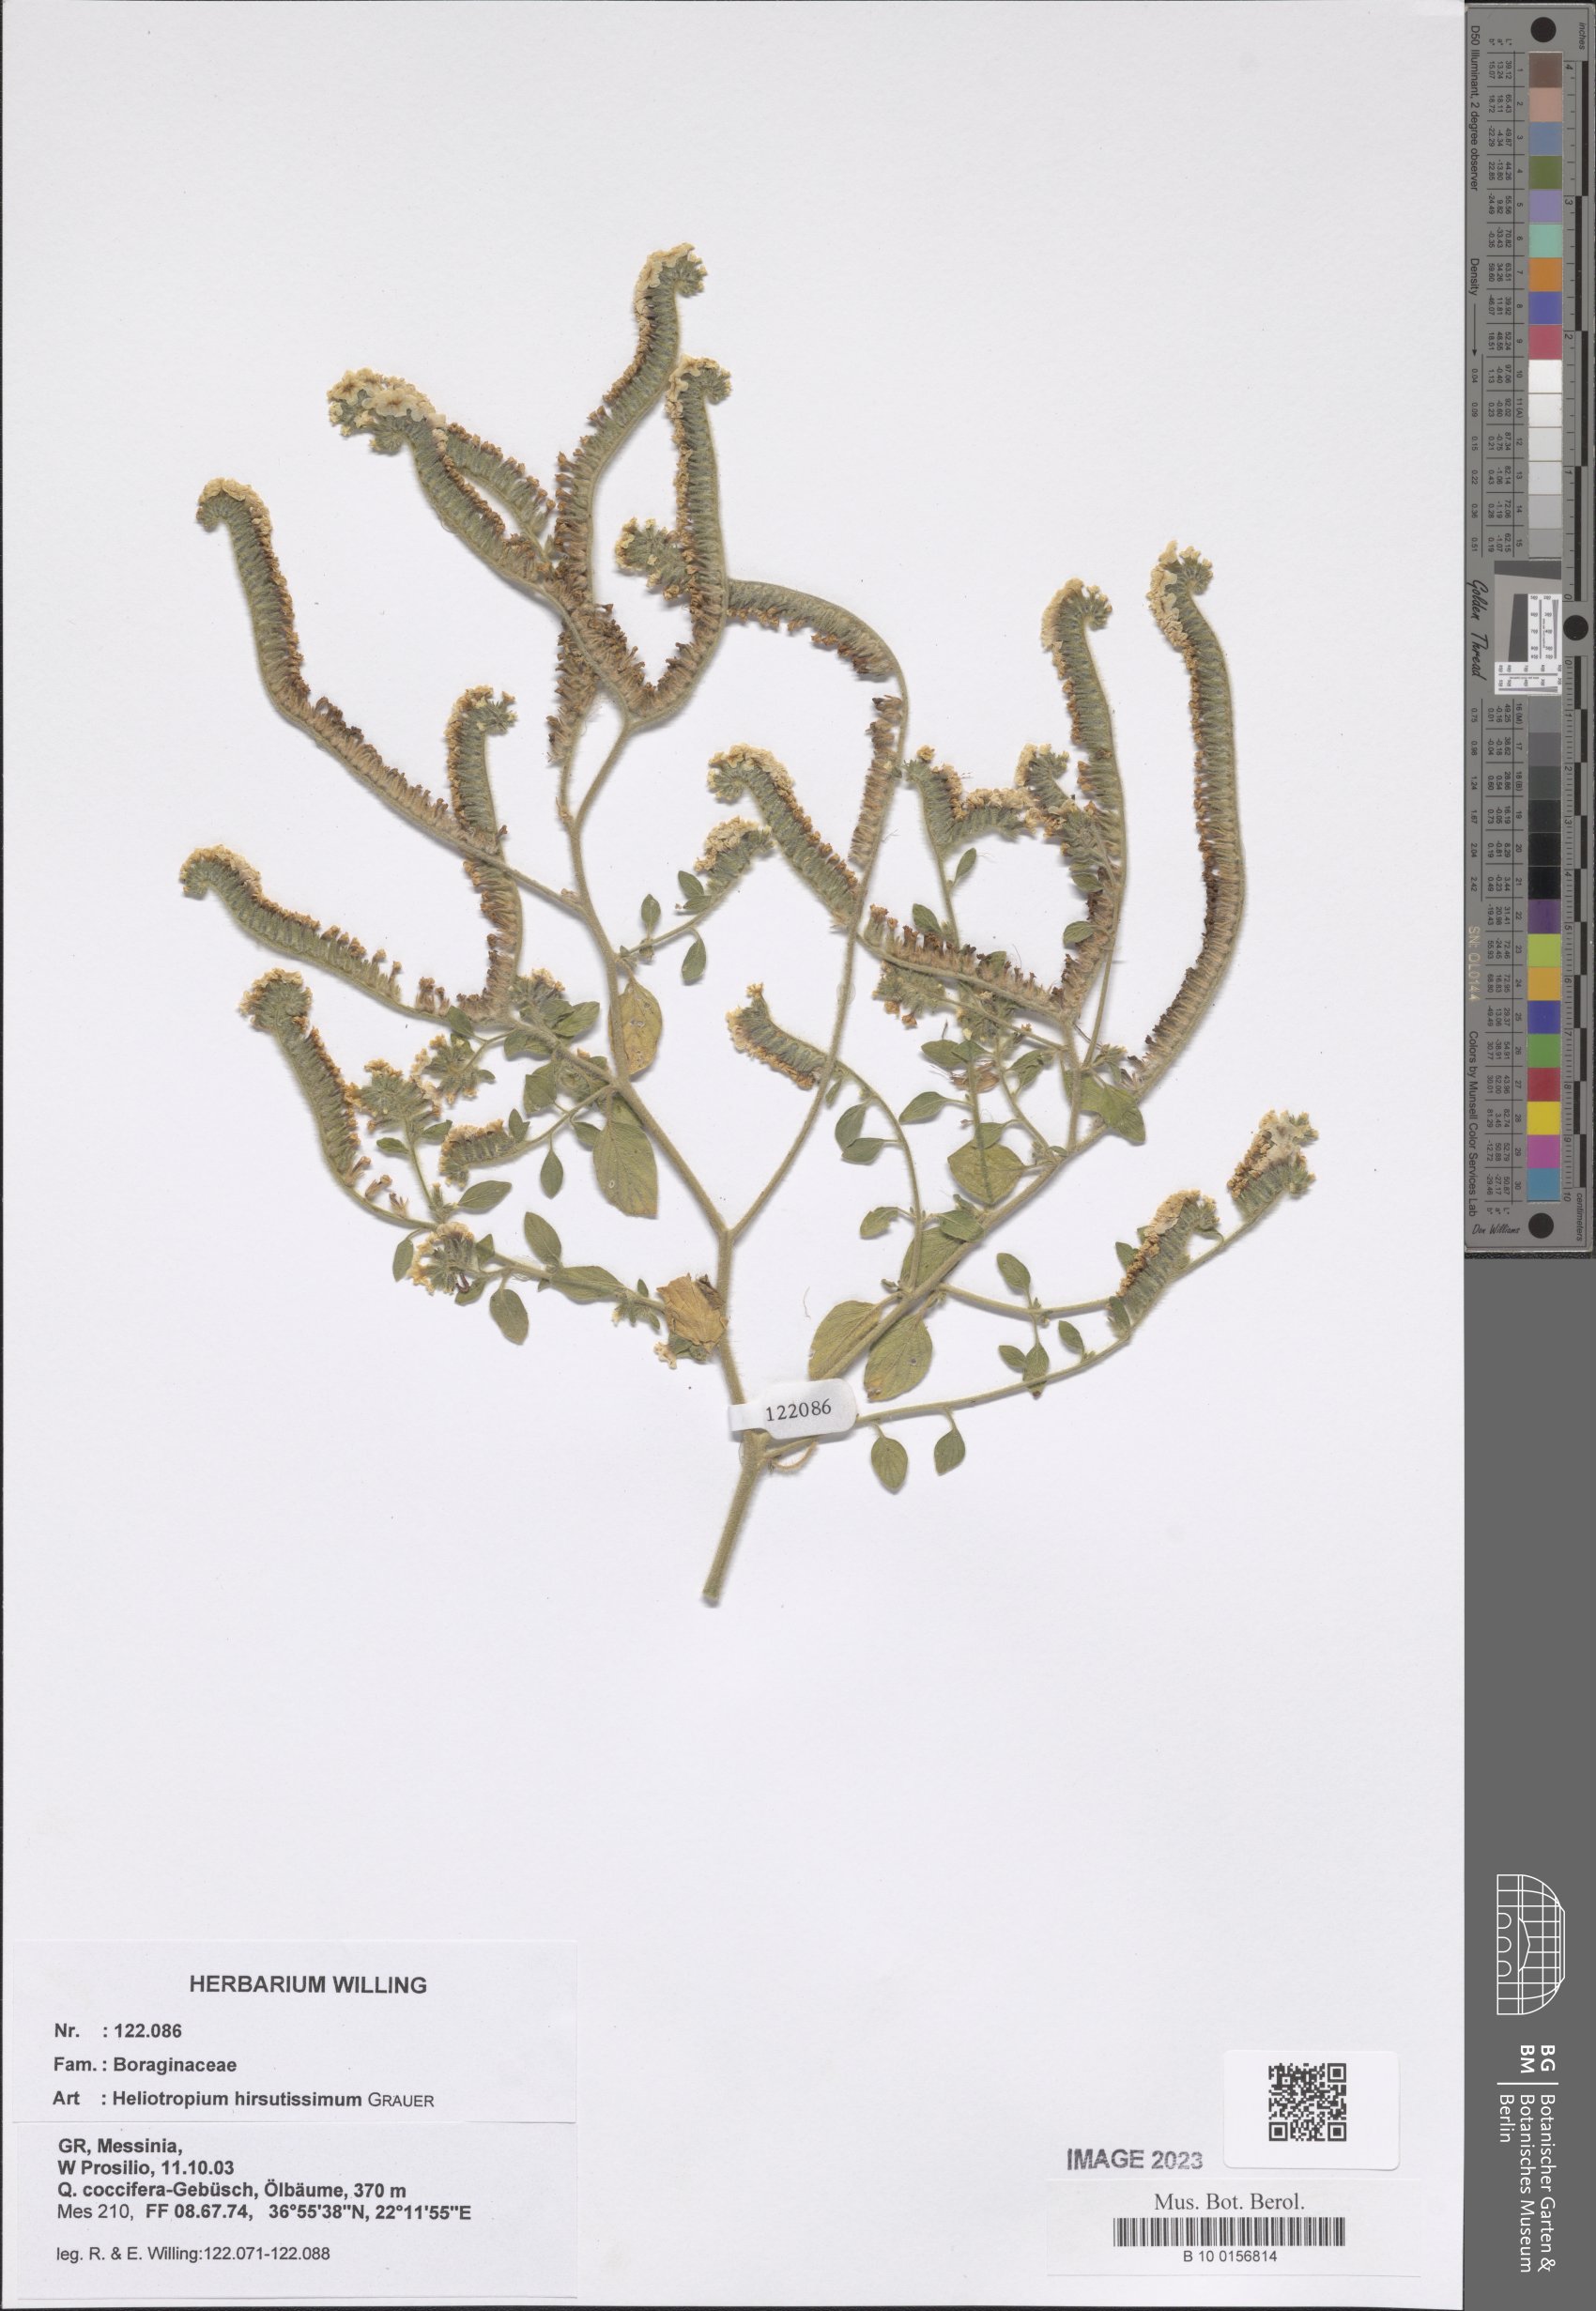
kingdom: Plantae
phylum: Tracheophyta
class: Magnoliopsida
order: Boraginales
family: Heliotropiaceae
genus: Heliotropium
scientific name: Heliotropium hirsutissimum
